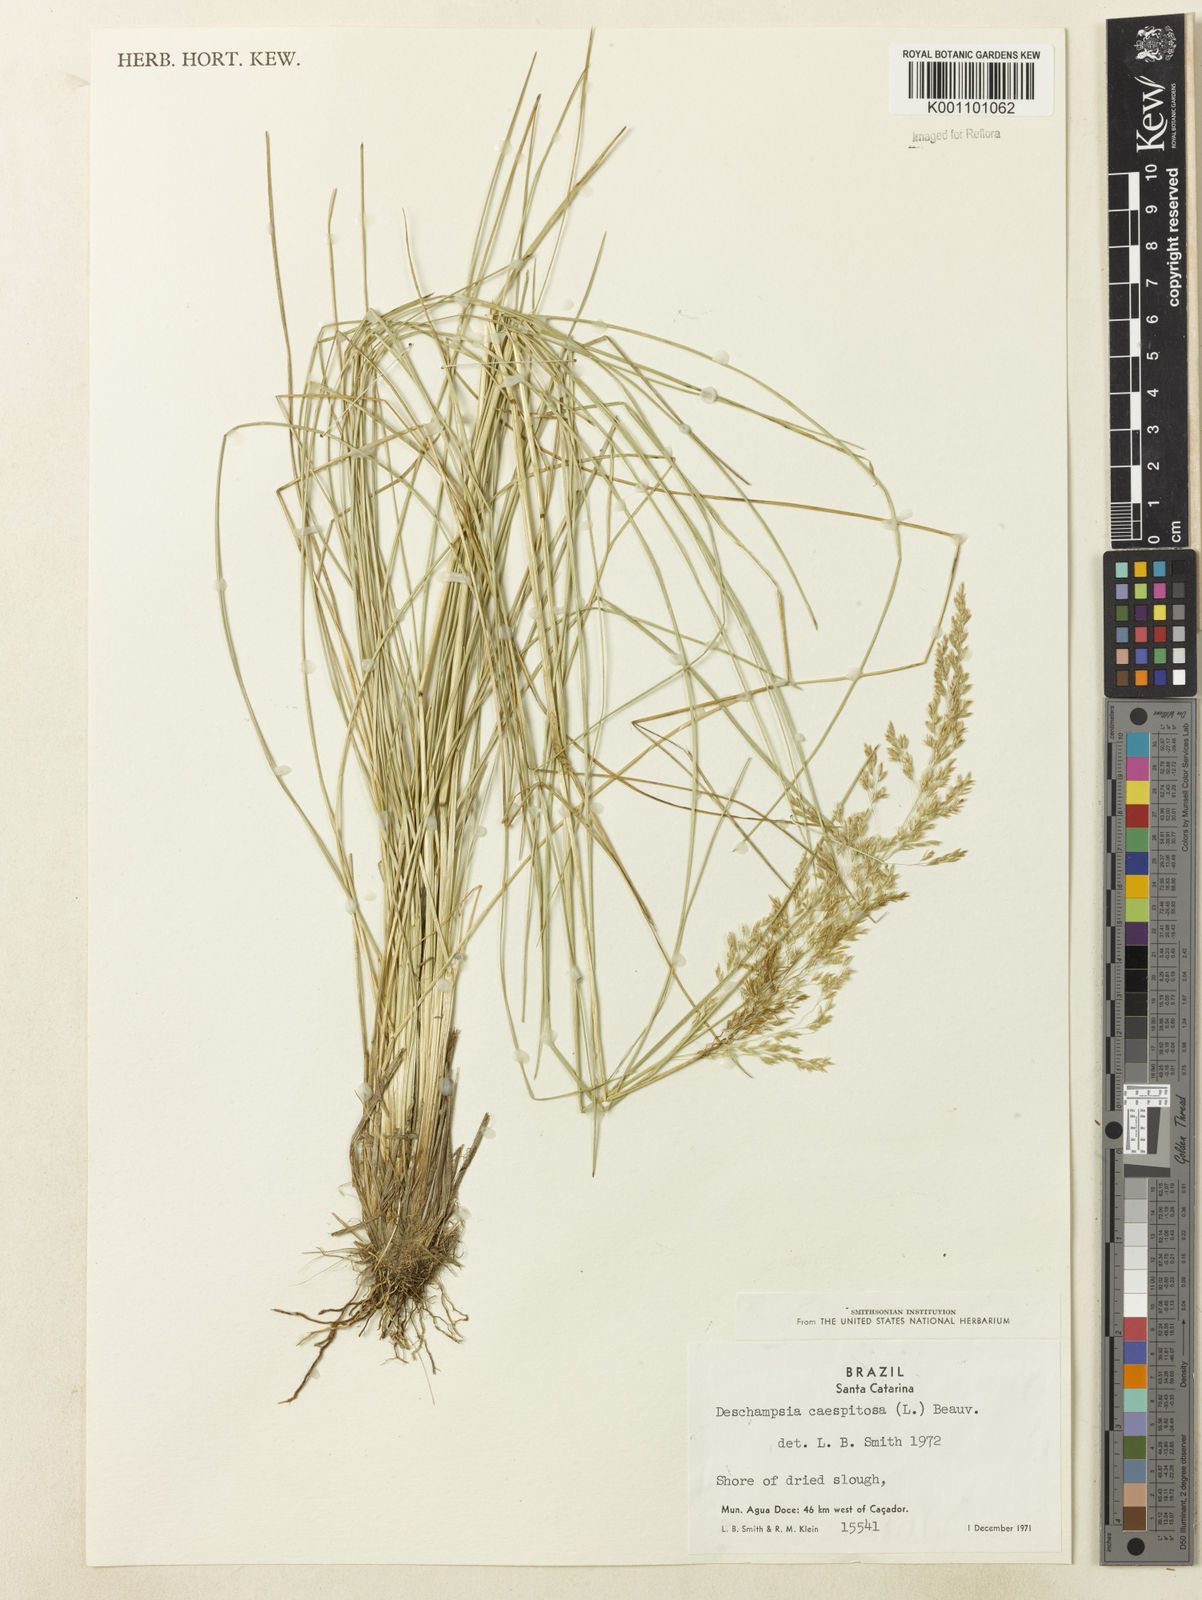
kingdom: Plantae
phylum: Tracheophyta
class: Liliopsida
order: Poales
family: Poaceae
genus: Deschampsia
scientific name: Deschampsia
